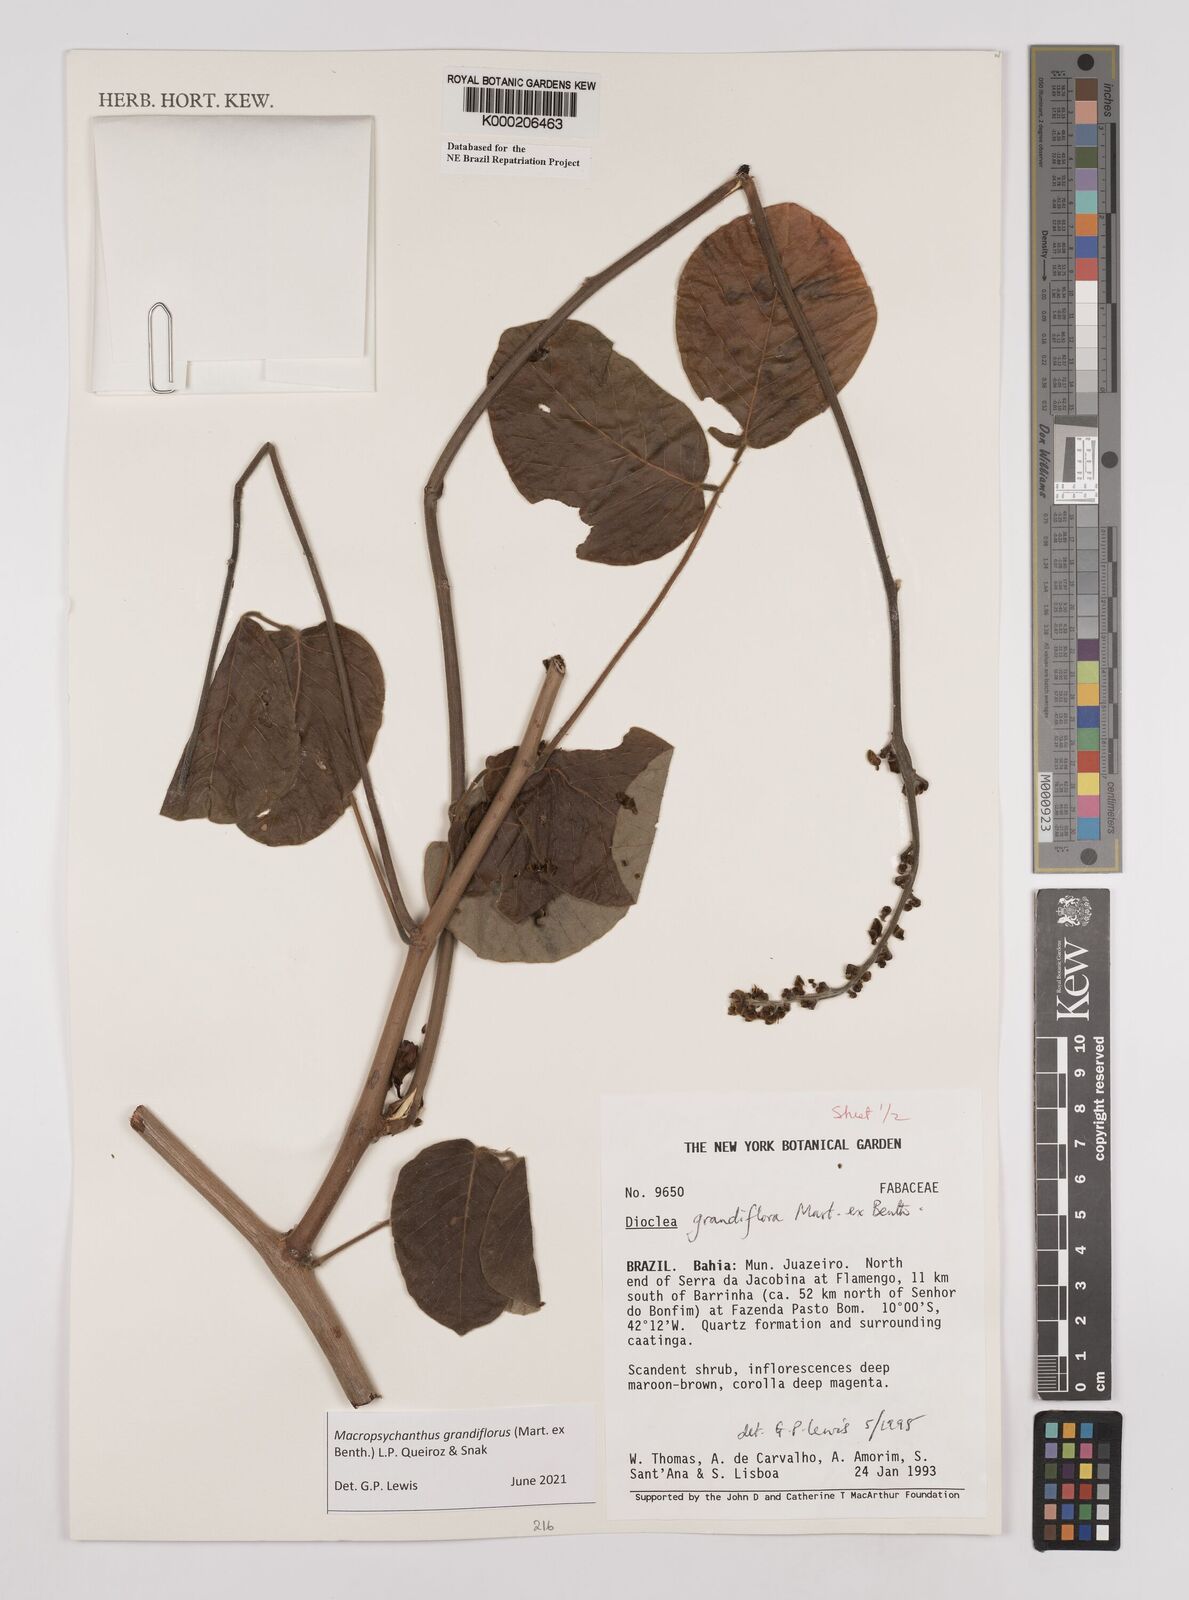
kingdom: Plantae
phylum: Tracheophyta
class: Magnoliopsida
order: Fabales
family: Fabaceae
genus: Macropsychanthus
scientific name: Macropsychanthus grandiflorus
